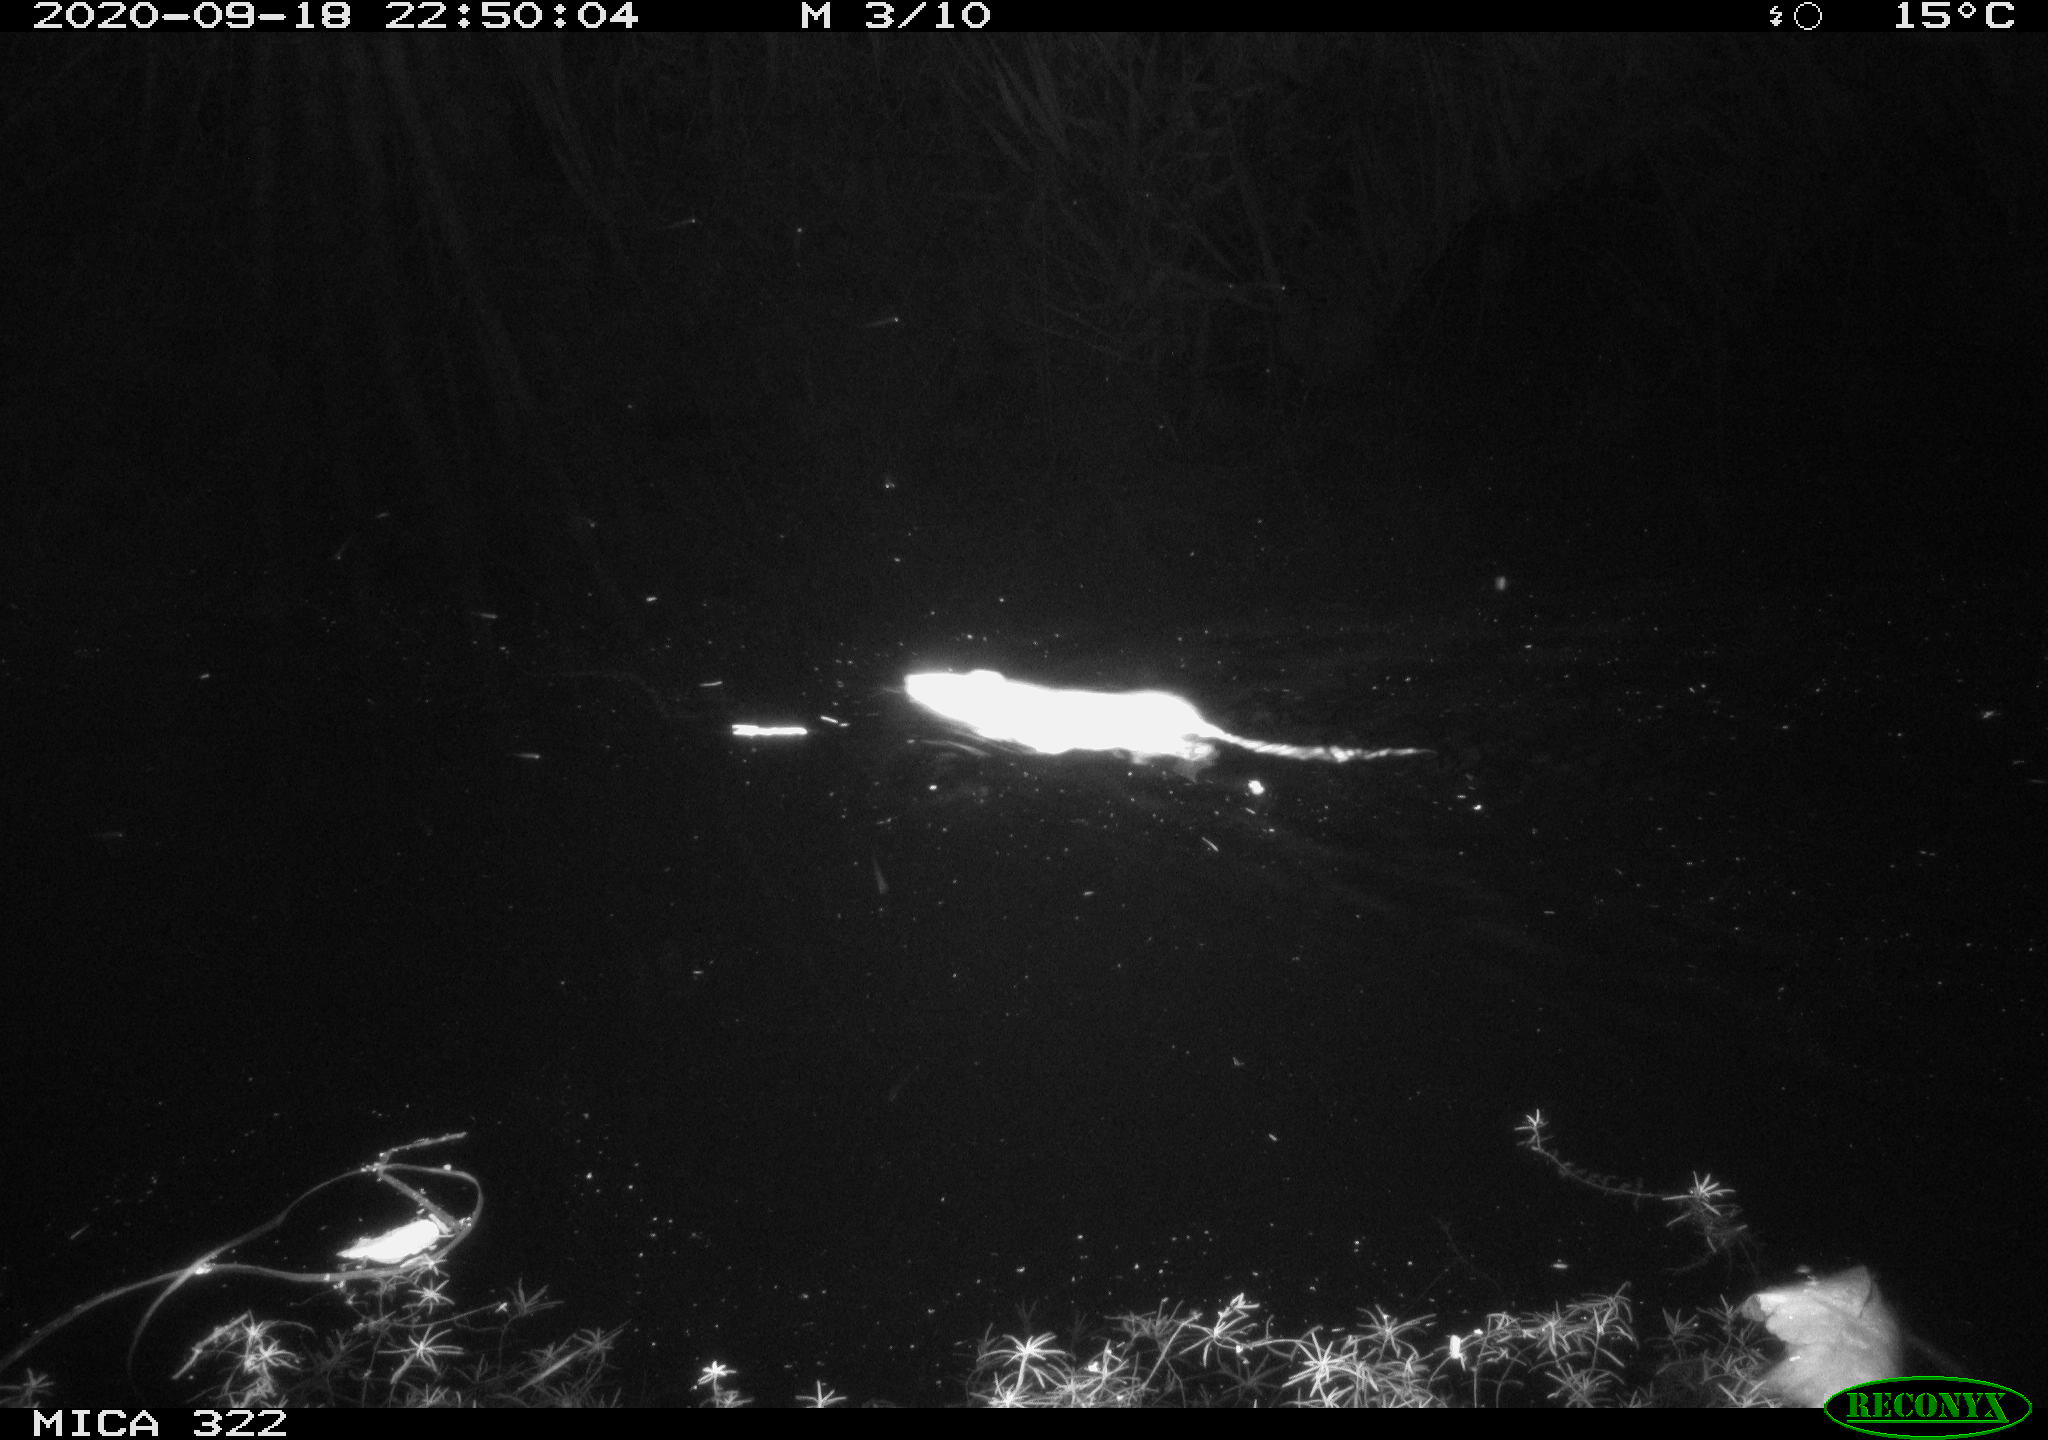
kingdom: Animalia
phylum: Chordata
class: Mammalia
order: Rodentia
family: Muridae
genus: Rattus
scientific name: Rattus norvegicus
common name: Brown rat
